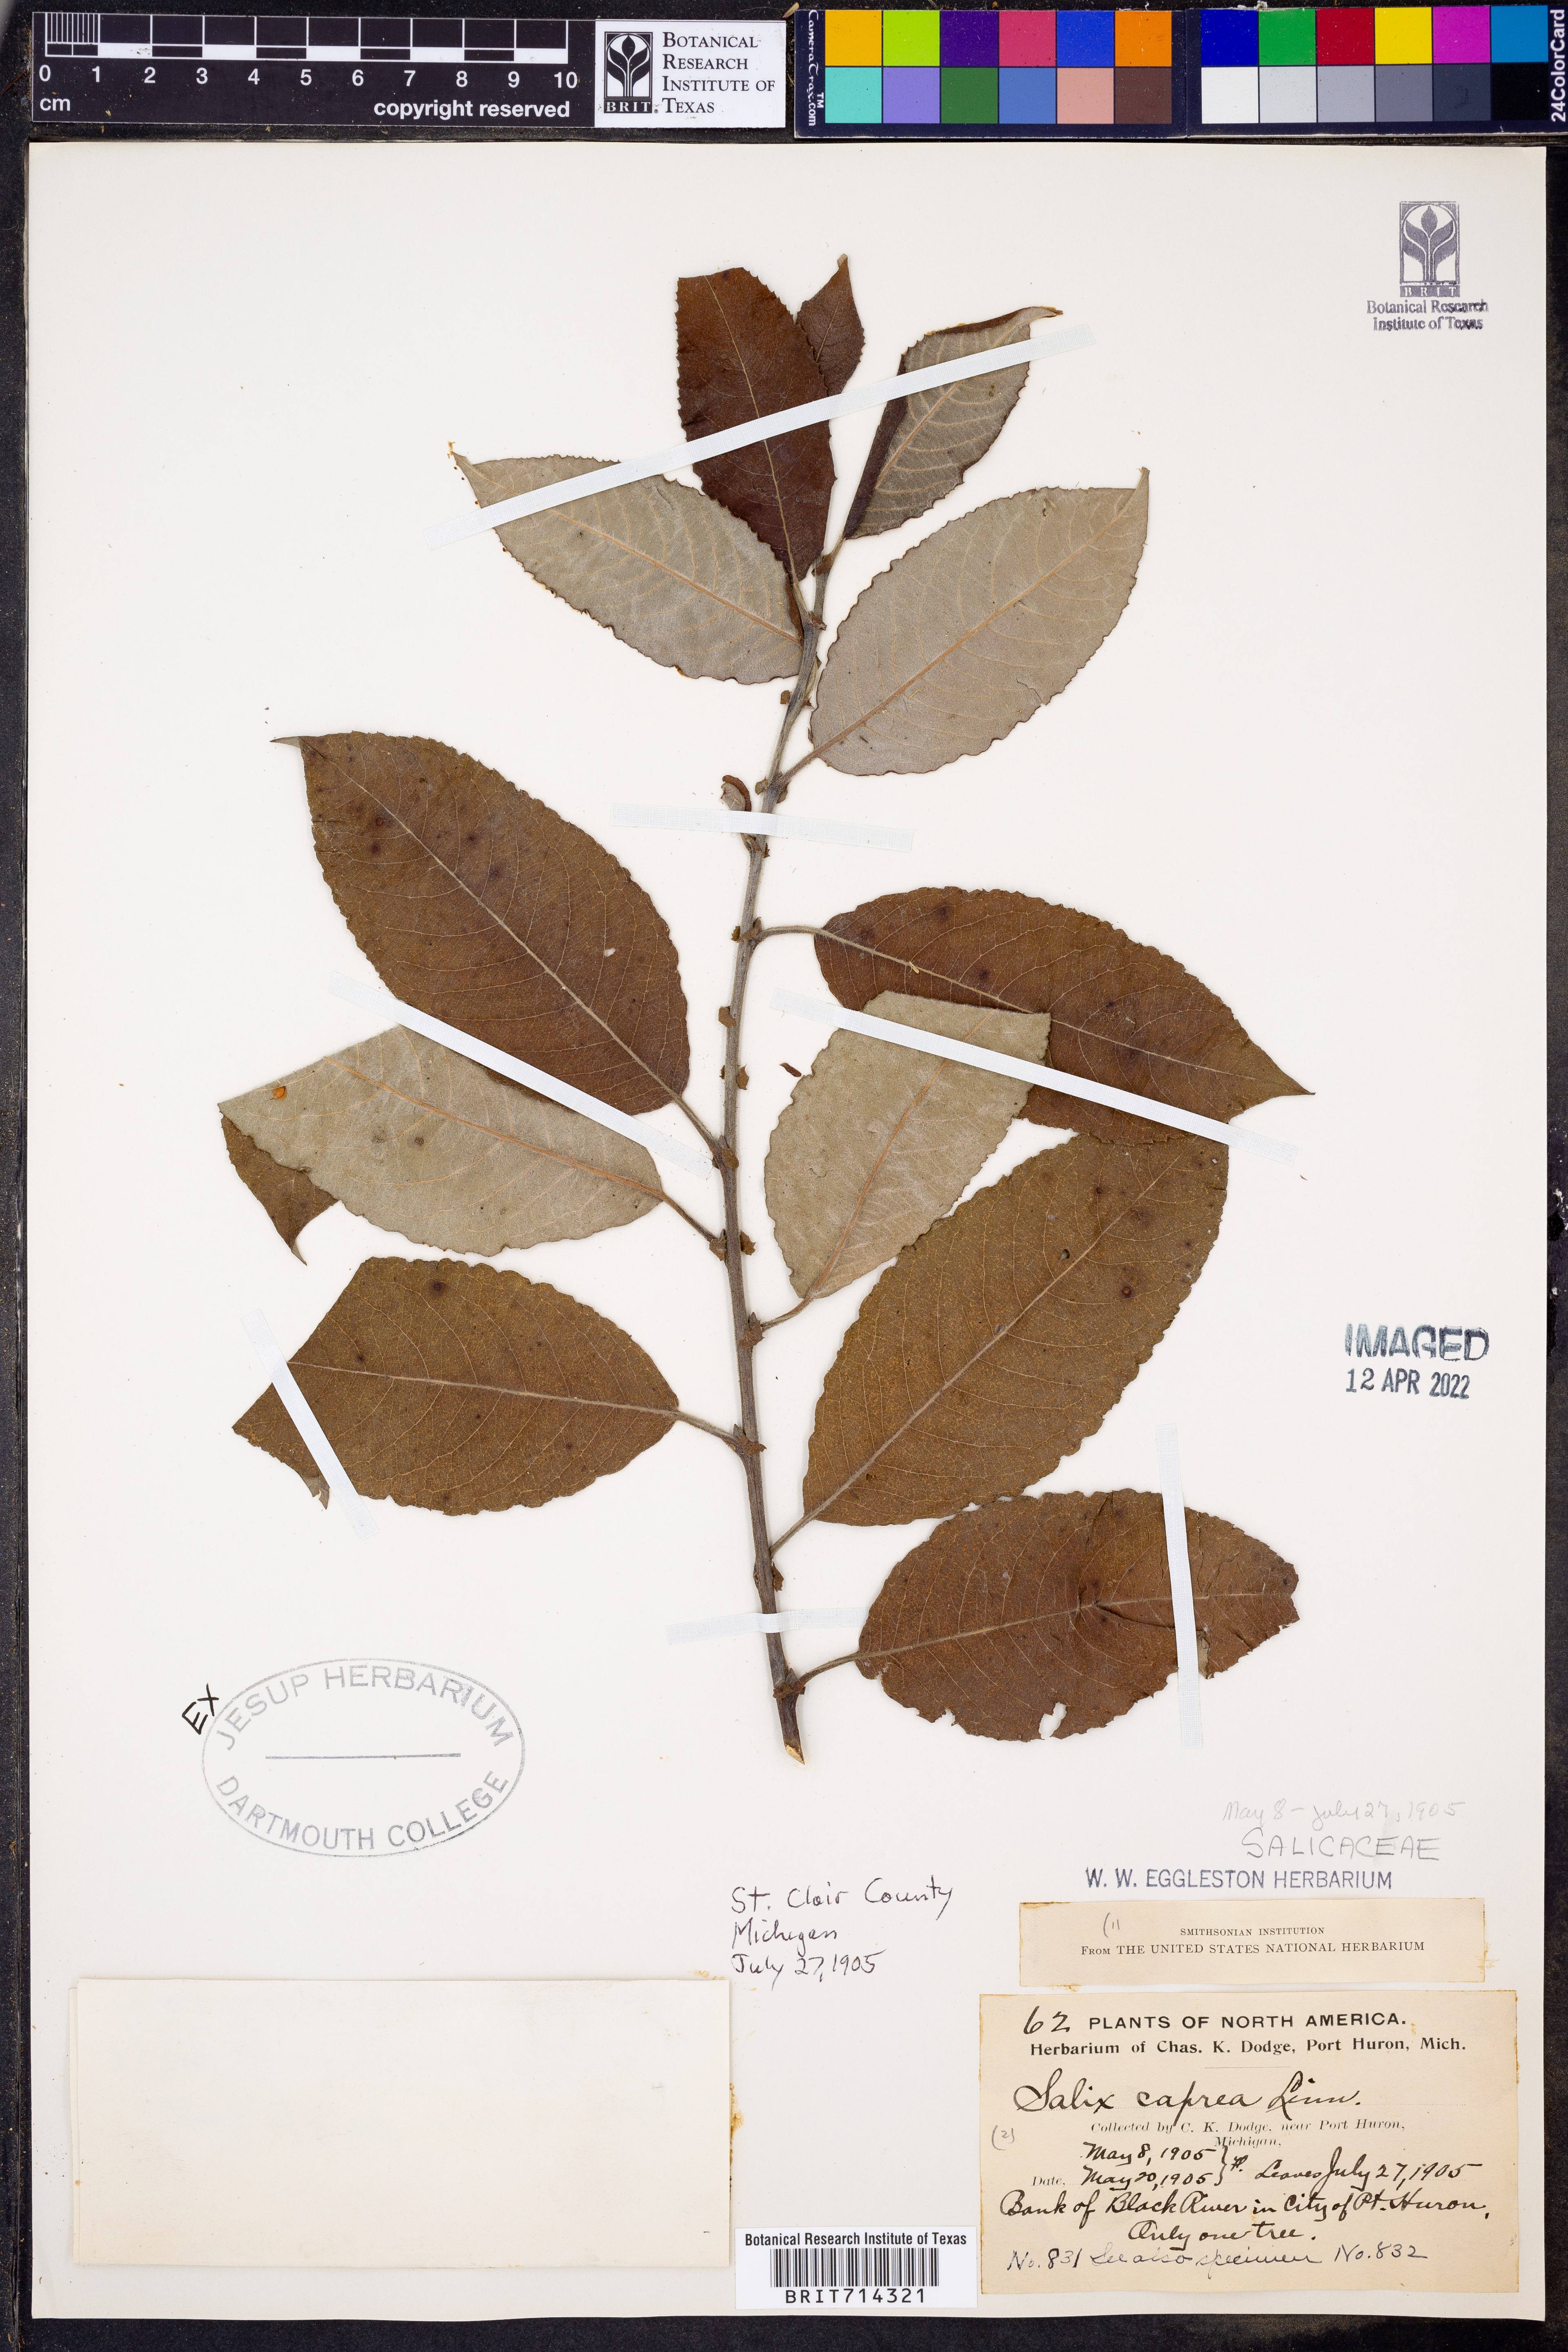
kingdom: Plantae
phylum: Tracheophyta
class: Magnoliopsida
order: Malpighiales
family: Salicaceae
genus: Salix
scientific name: Salix
